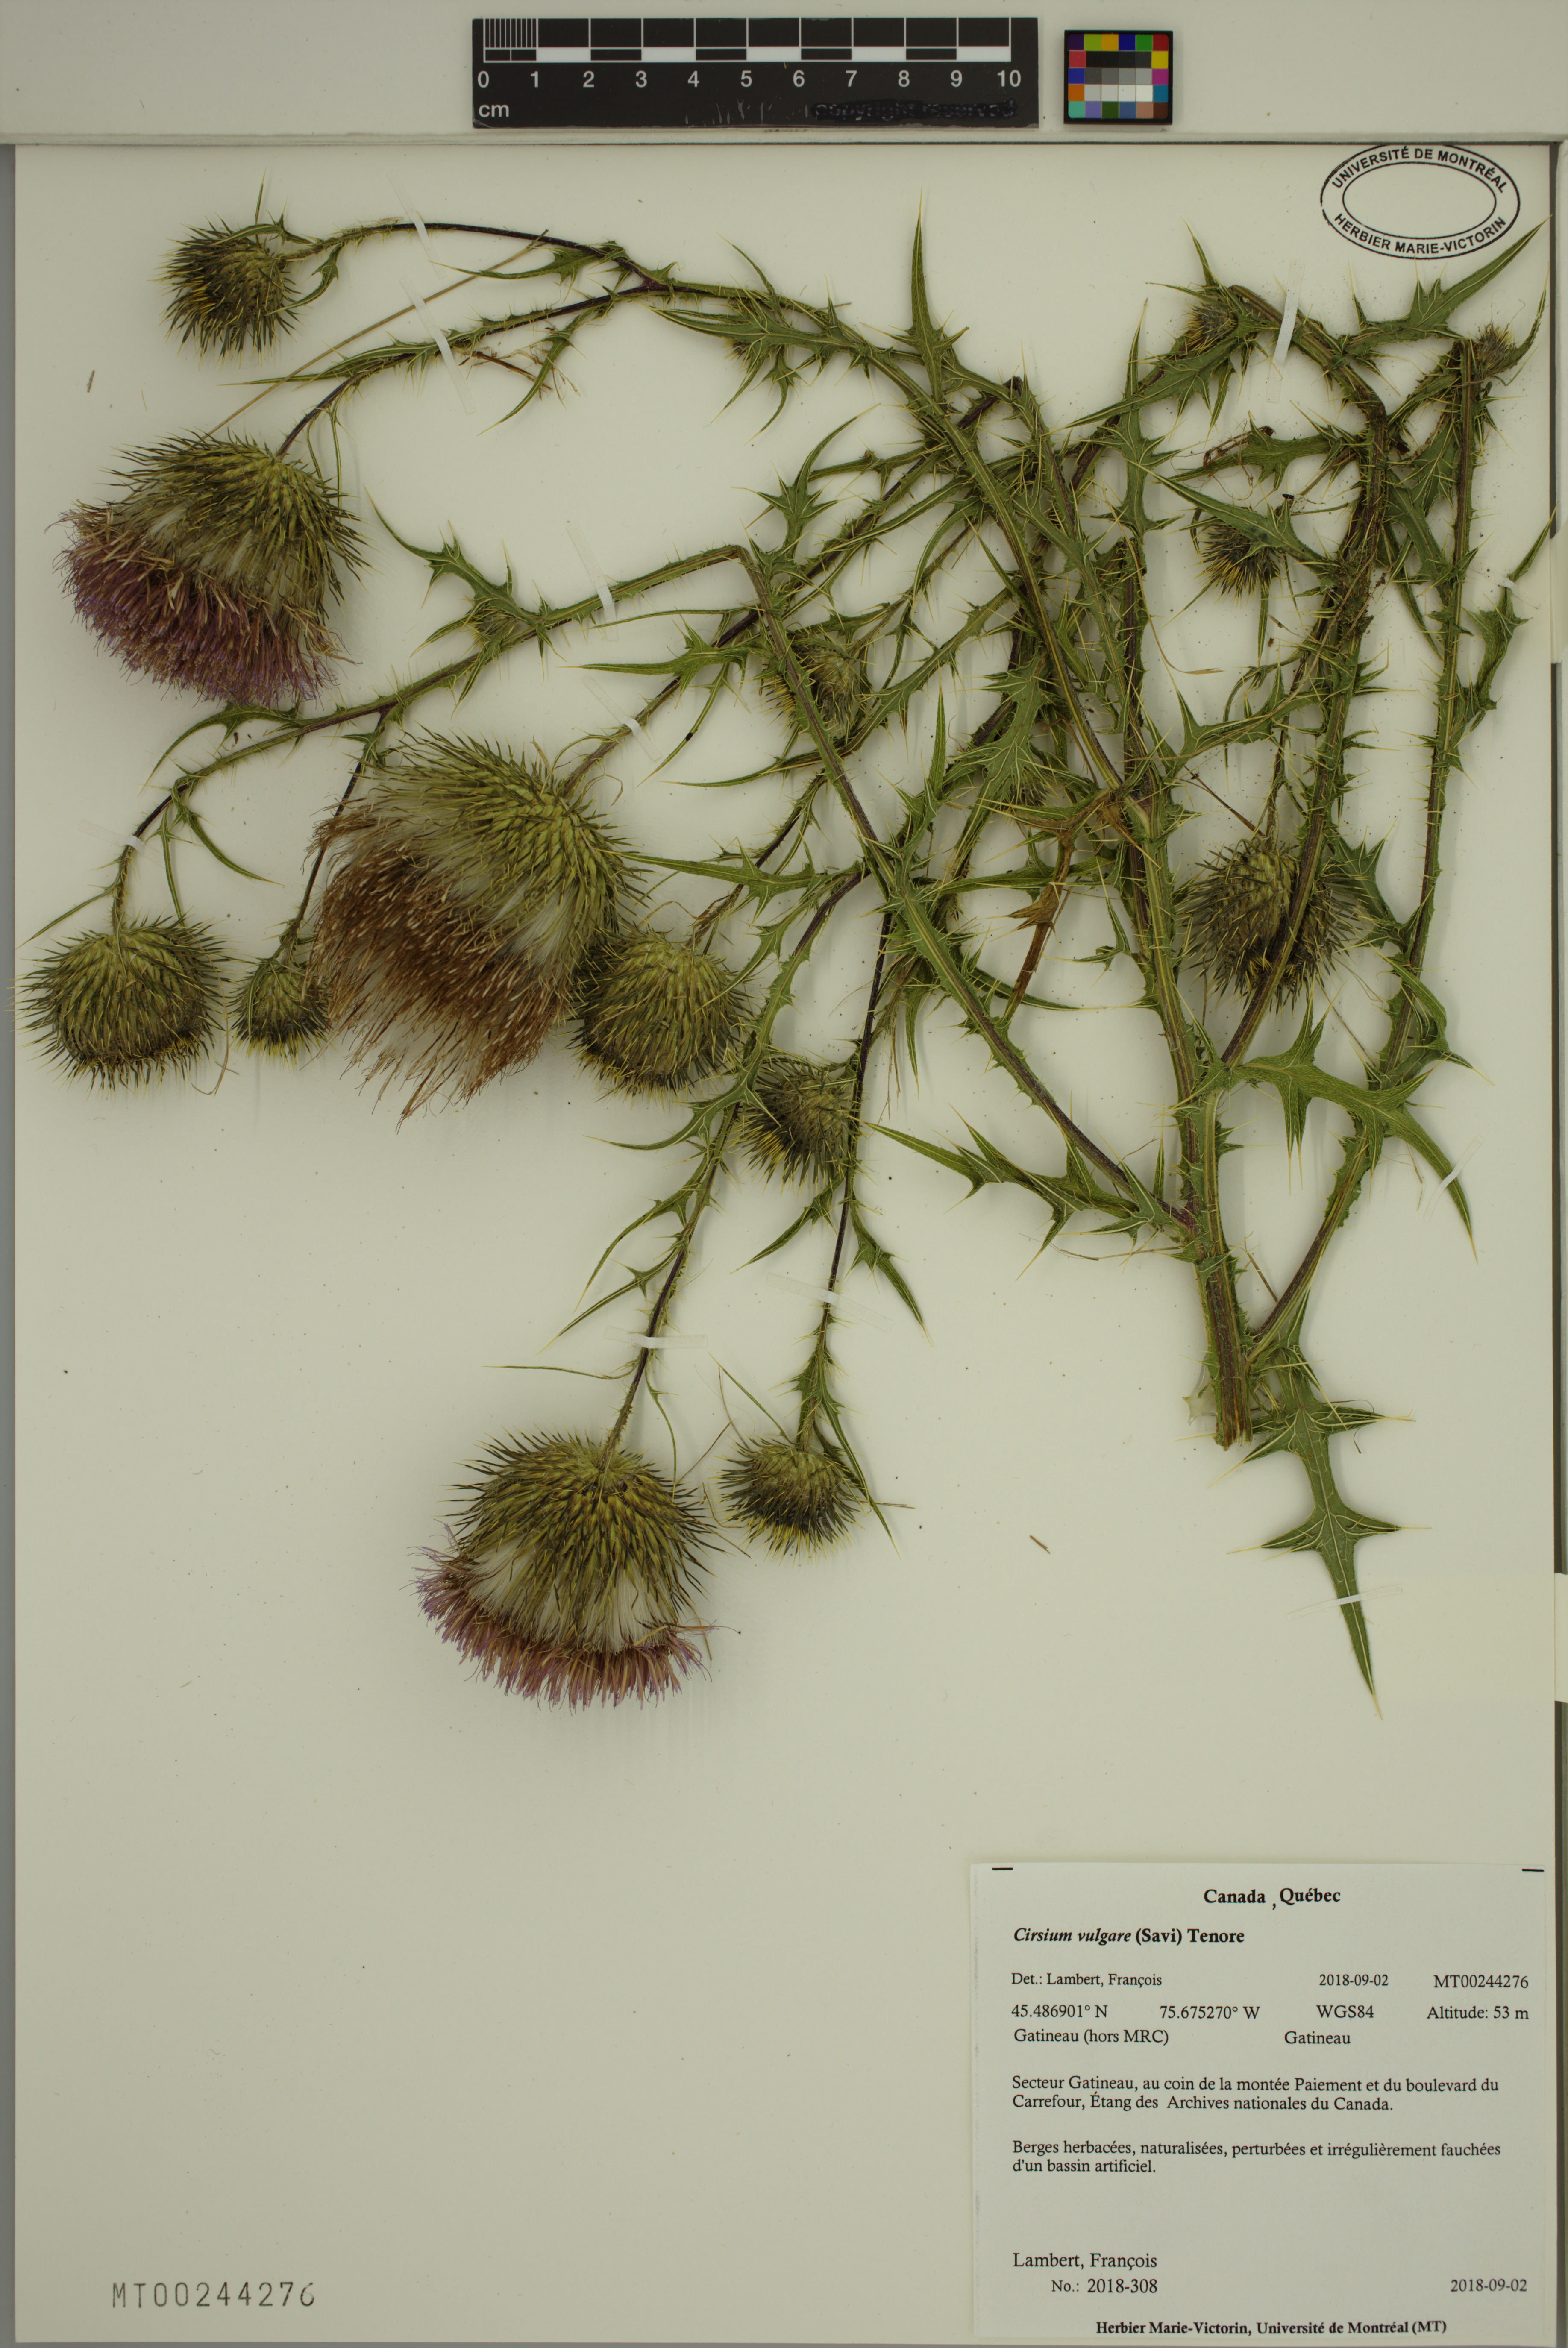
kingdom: Plantae
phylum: Tracheophyta
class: Magnoliopsida
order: Asterales
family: Asteraceae
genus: Cirsium
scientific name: Cirsium vulgare
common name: Bull thistle
